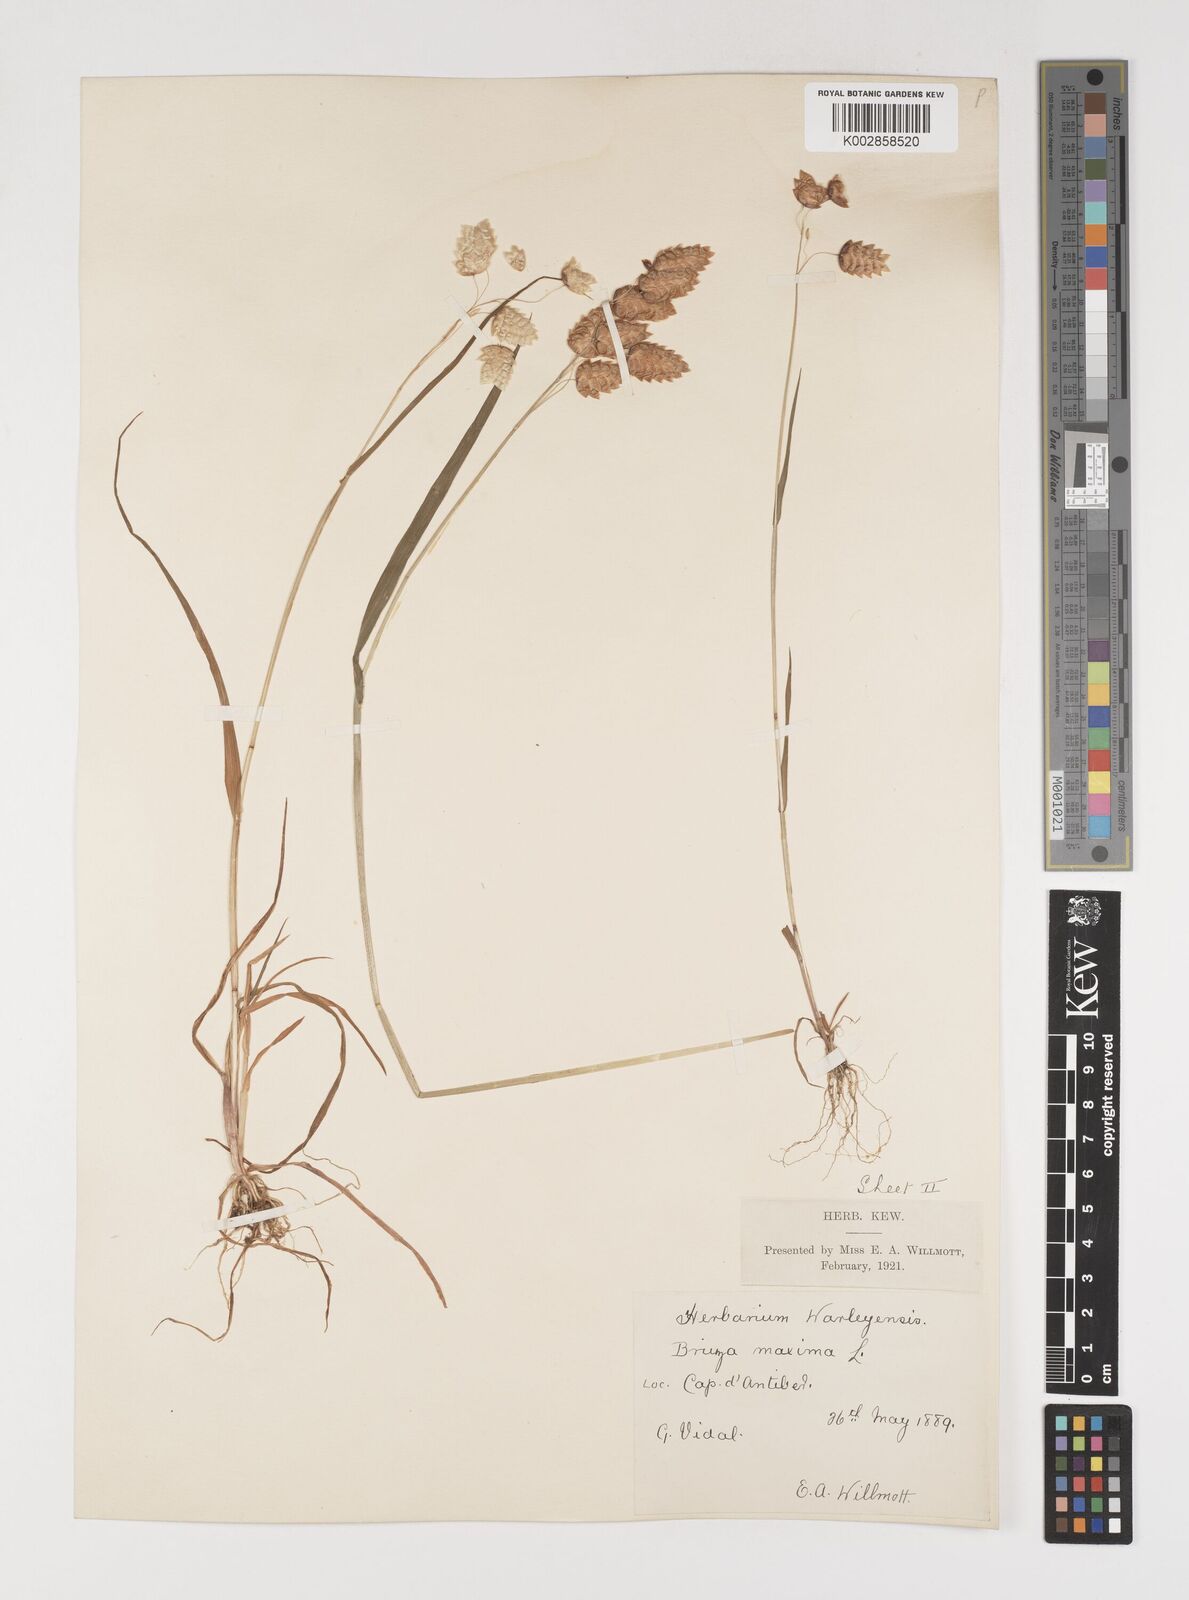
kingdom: Plantae
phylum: Tracheophyta
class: Liliopsida
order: Poales
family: Poaceae
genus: Briza
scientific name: Briza maxima
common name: Big quakinggrass
